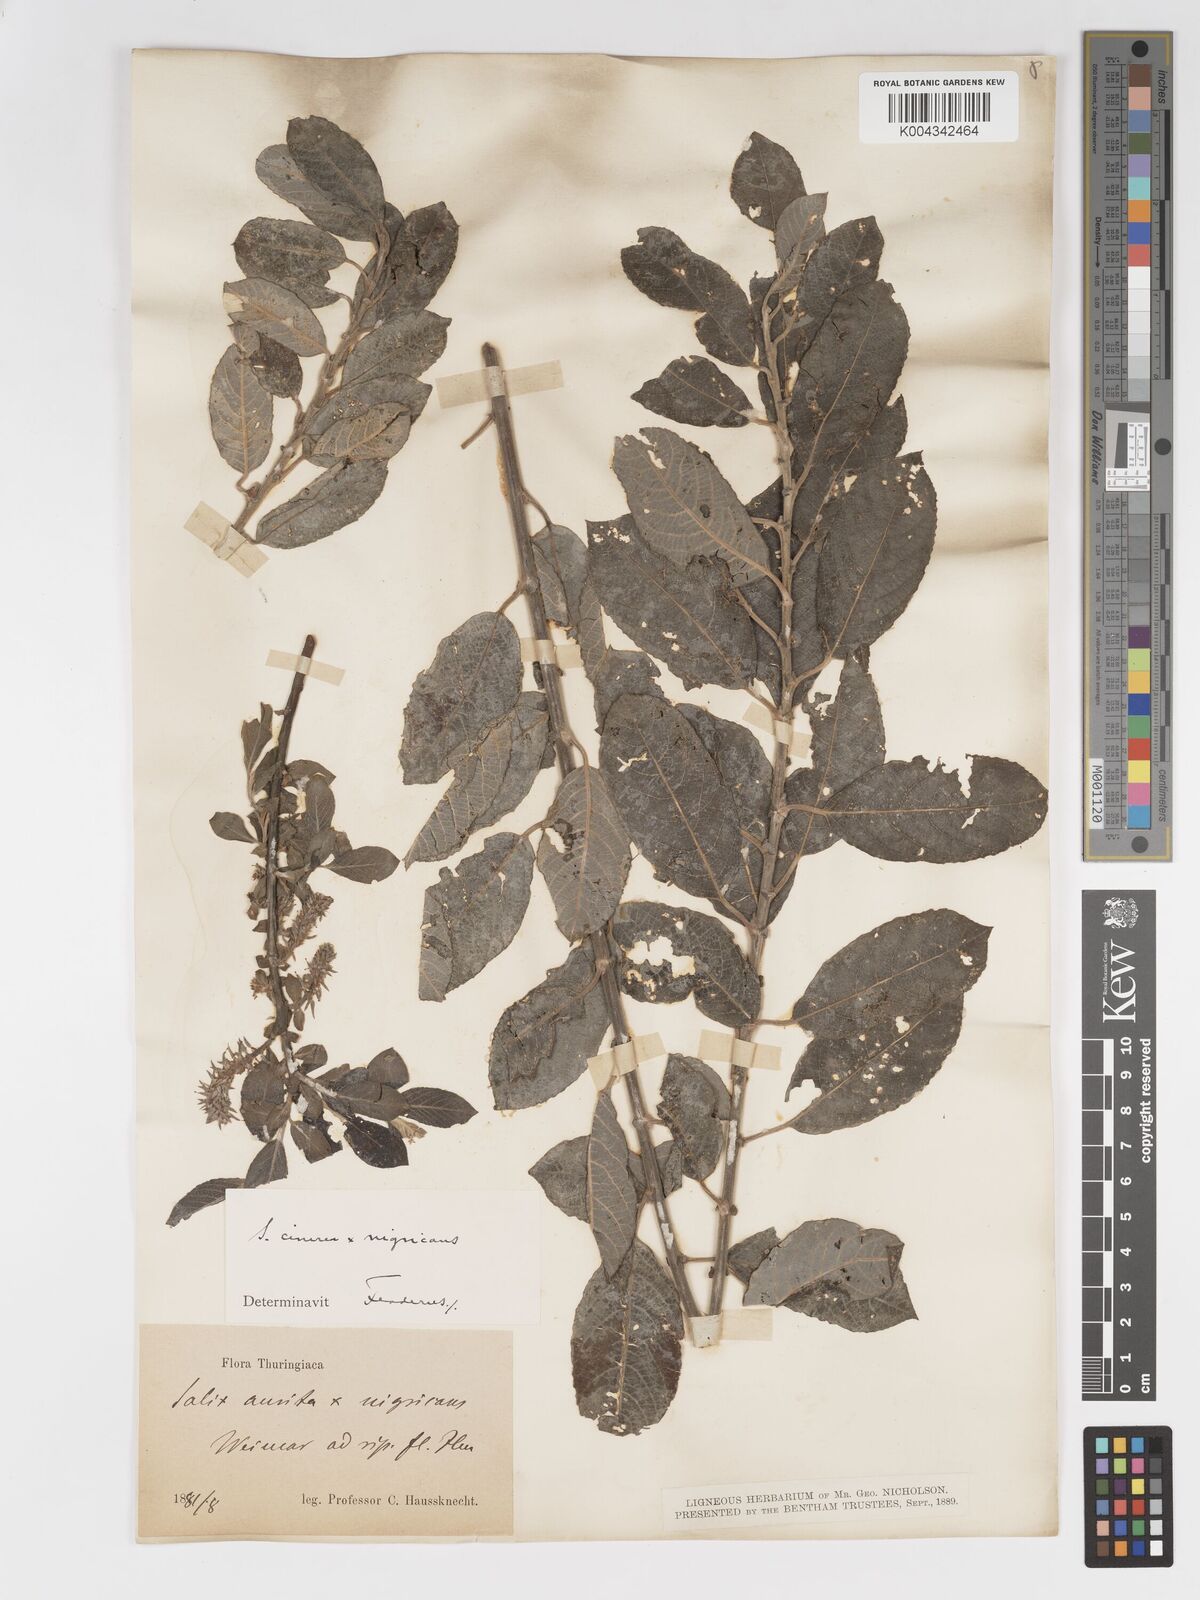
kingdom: Plantae
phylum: Tracheophyta
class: Magnoliopsida
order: Malpighiales
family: Salicaceae
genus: Salix
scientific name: Salix
